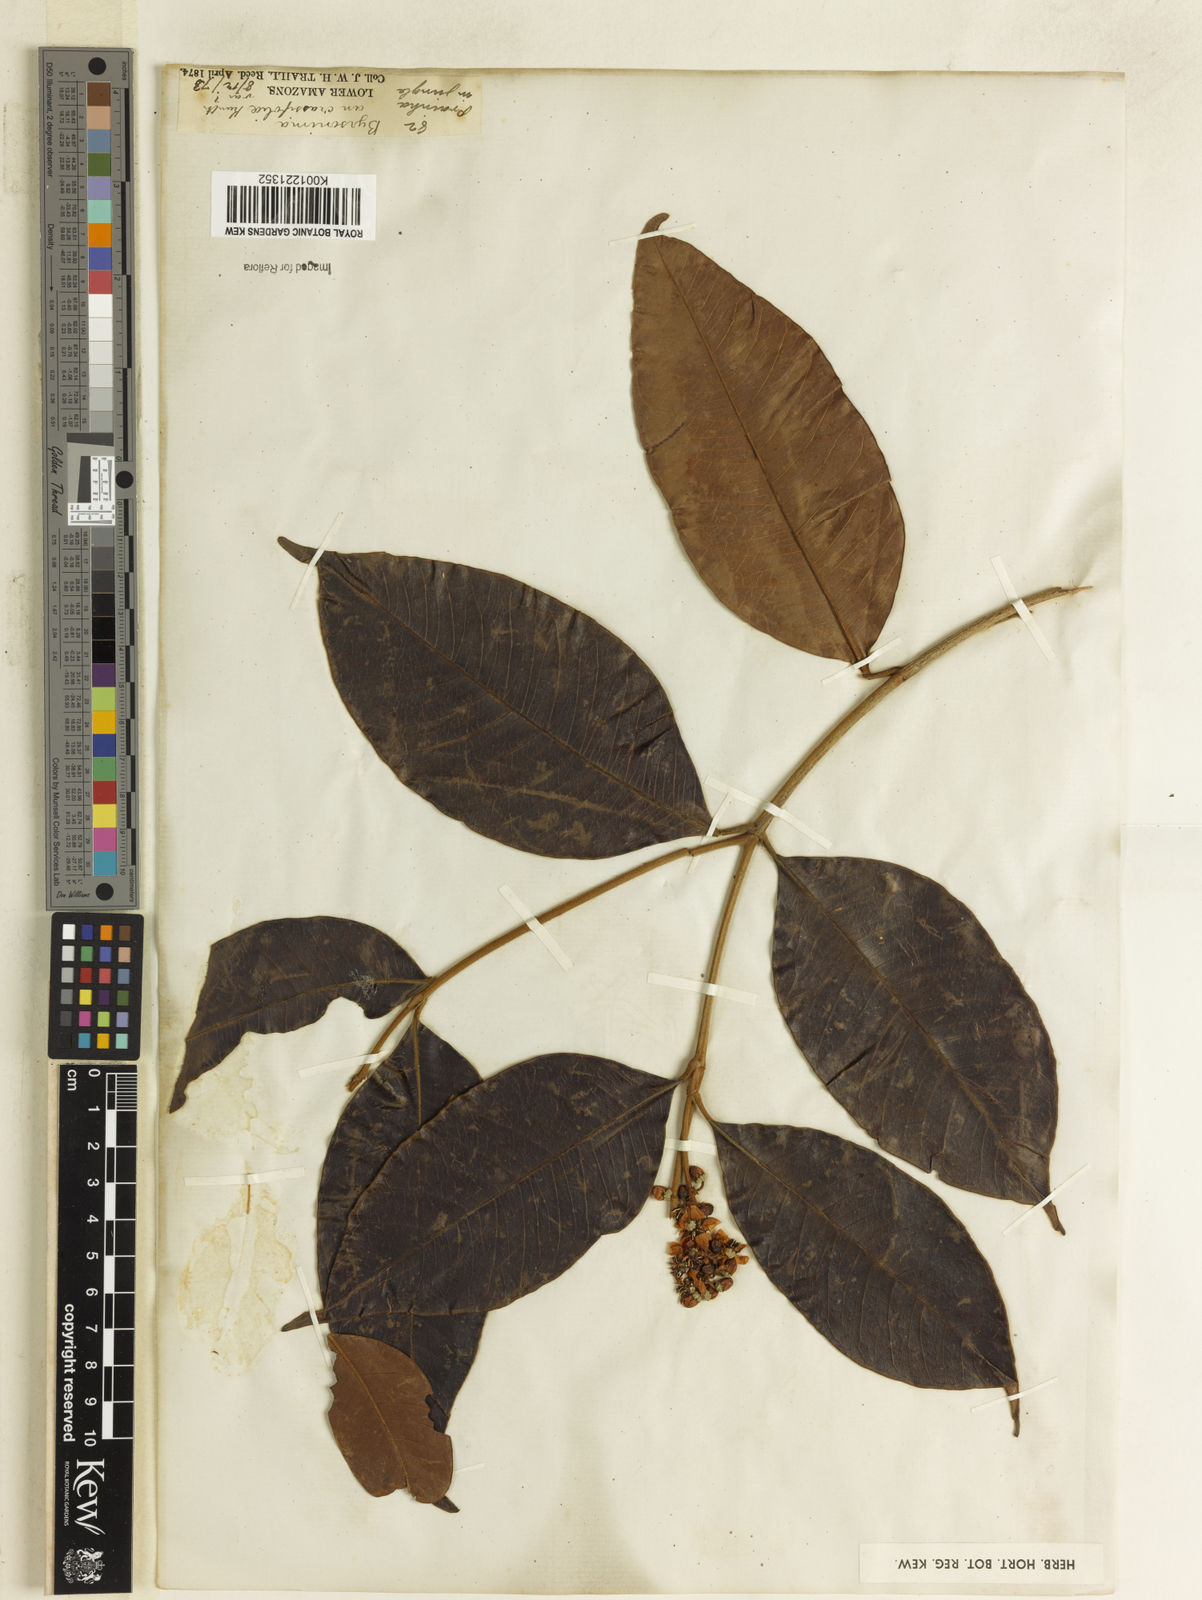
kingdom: Plantae
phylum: Tracheophyta
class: Magnoliopsida
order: Malpighiales
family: Malpighiaceae
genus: Byrsonima
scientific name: Byrsonima crassifolia
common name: Golden spoon
